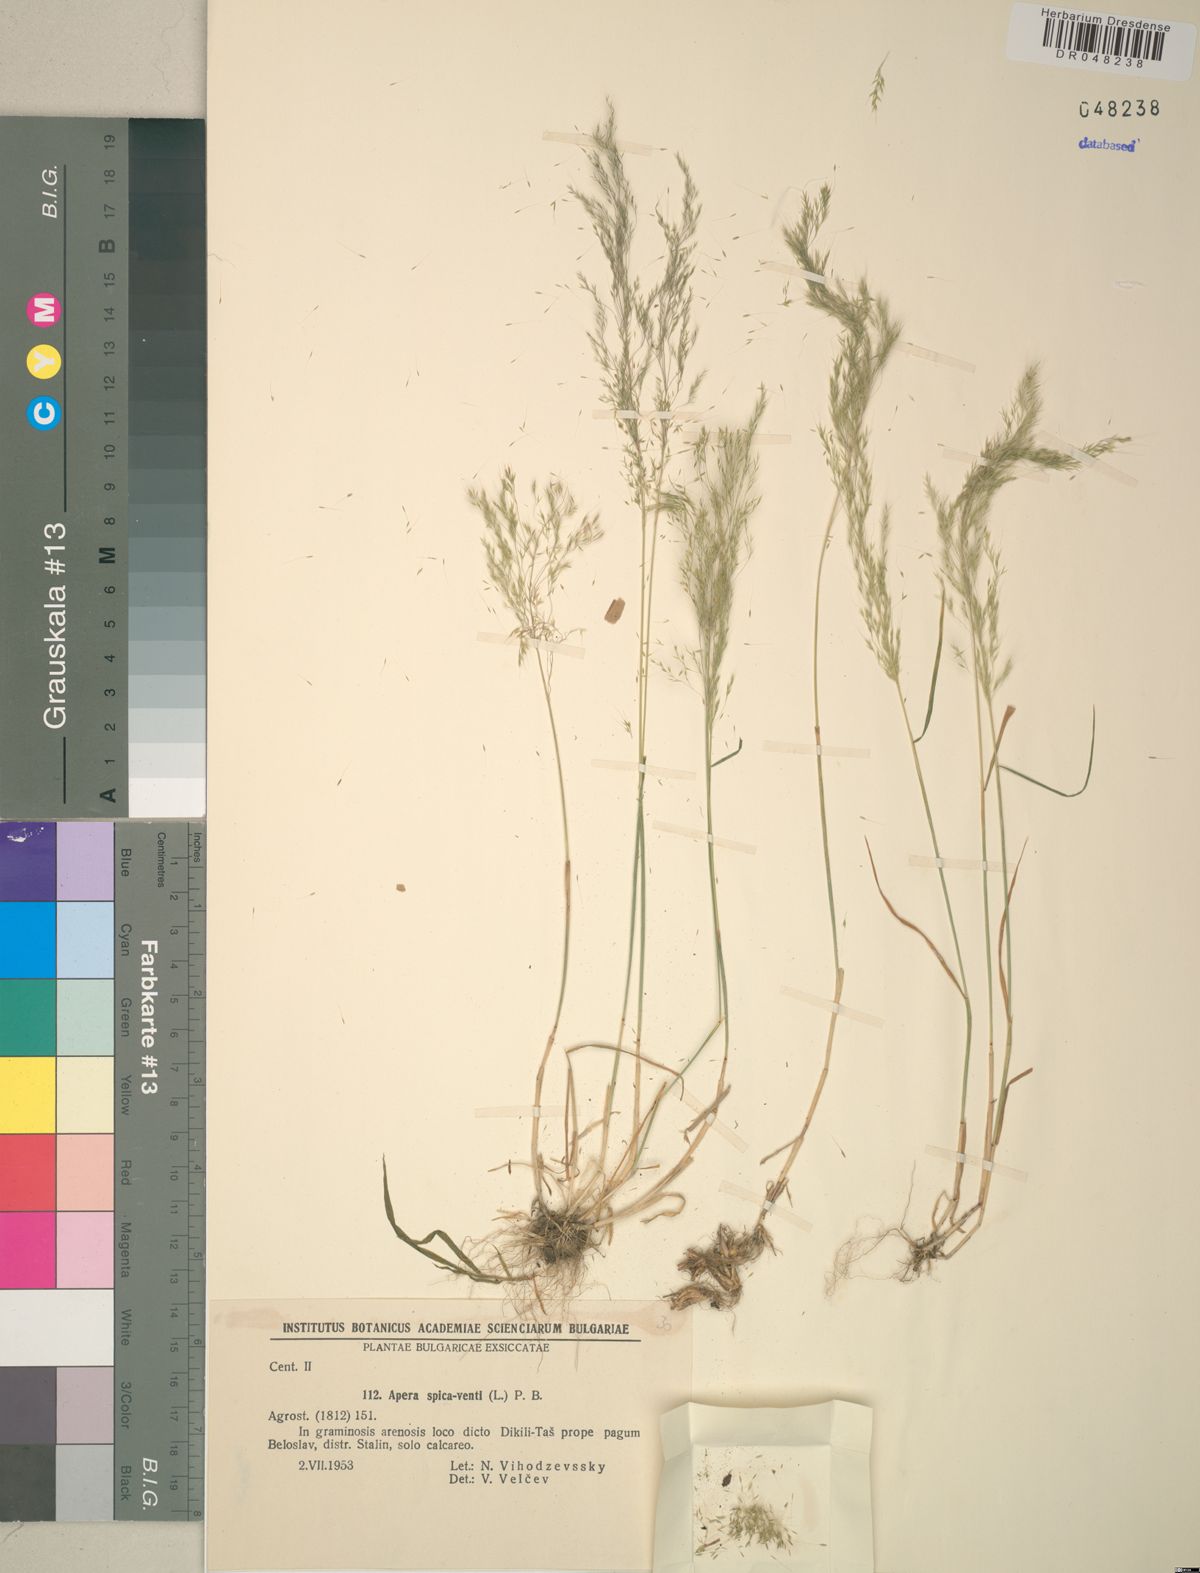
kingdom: Plantae
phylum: Tracheophyta
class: Liliopsida
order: Poales
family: Poaceae
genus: Apera
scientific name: Apera spica-venti
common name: Loose silky-bent
